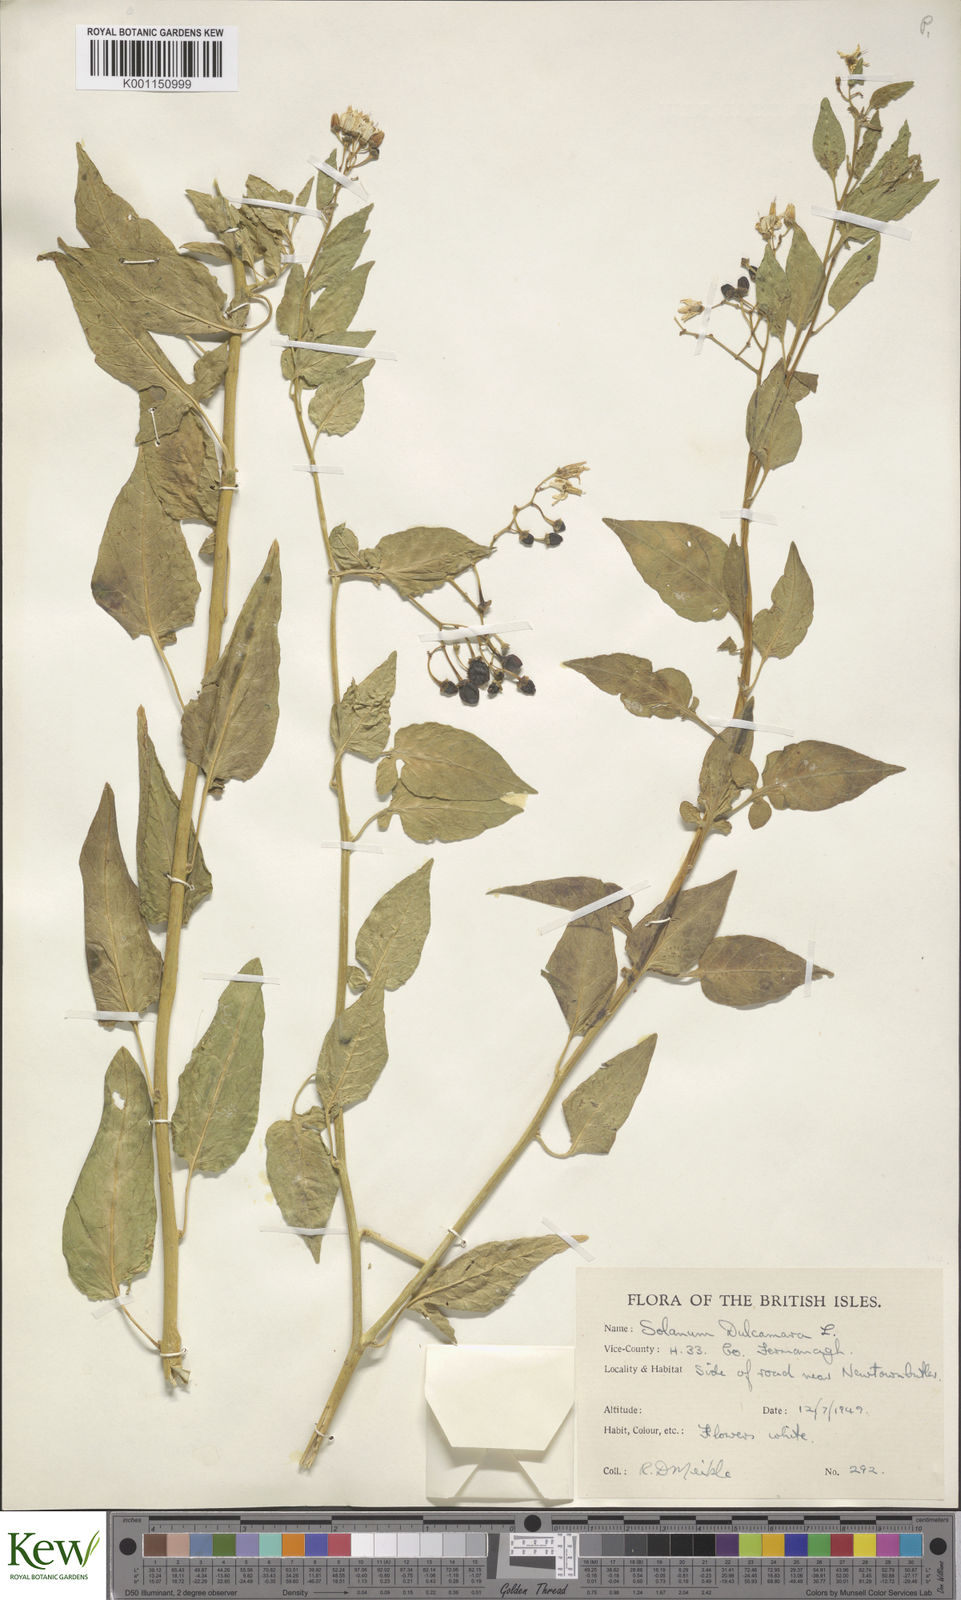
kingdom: Plantae
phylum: Tracheophyta
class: Magnoliopsida
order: Solanales
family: Solanaceae
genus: Solanum
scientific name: Solanum dulcamara
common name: Climbing nightshade
